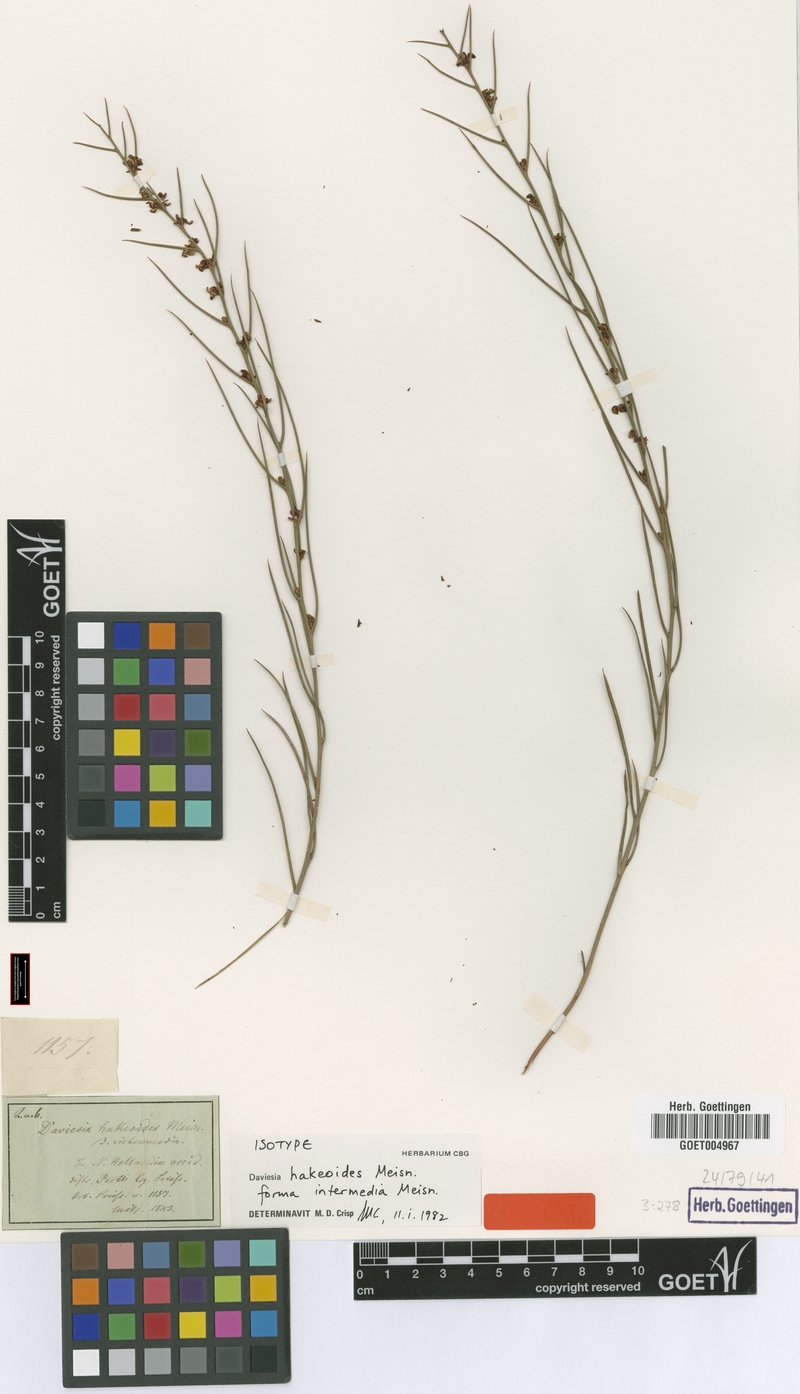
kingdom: Plantae
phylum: Tracheophyta
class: Magnoliopsida
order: Fabales
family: Fabaceae
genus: Daviesia
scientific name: Daviesia hakeoides
